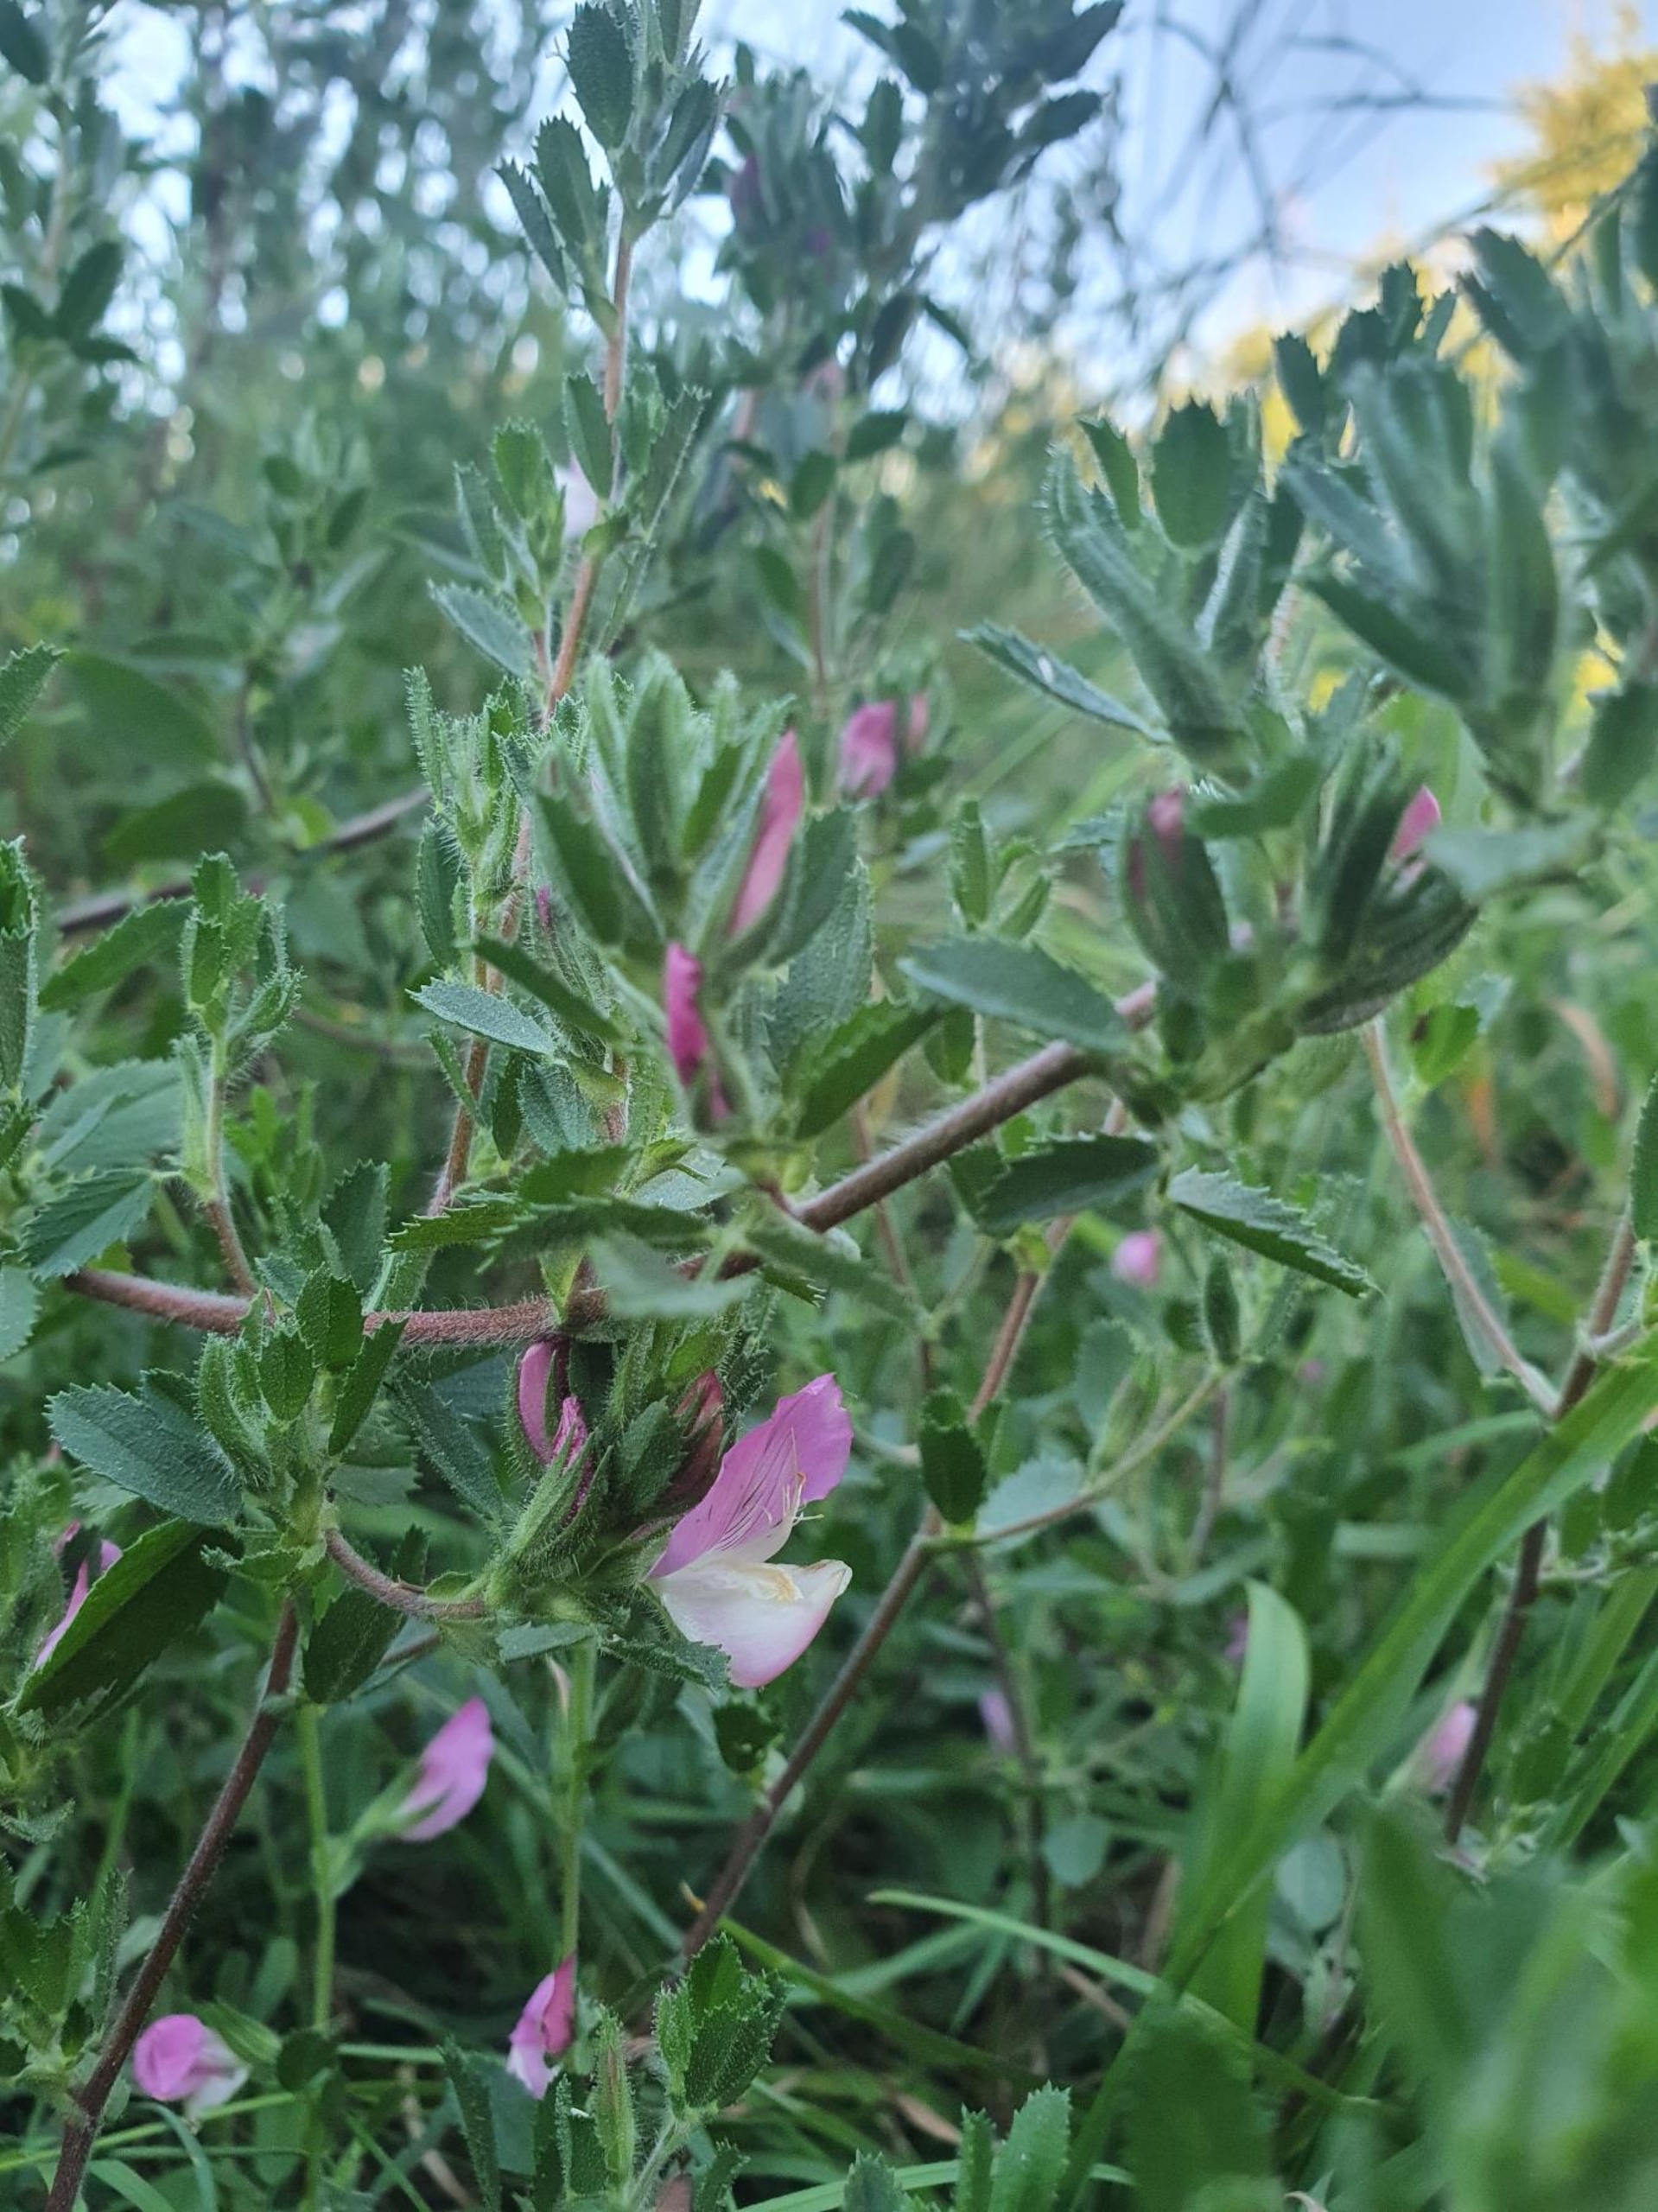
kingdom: Plantae
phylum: Tracheophyta
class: Magnoliopsida
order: Fabales
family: Fabaceae
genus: Ononis
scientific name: Ononis spinosa
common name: Mark-krageklo
